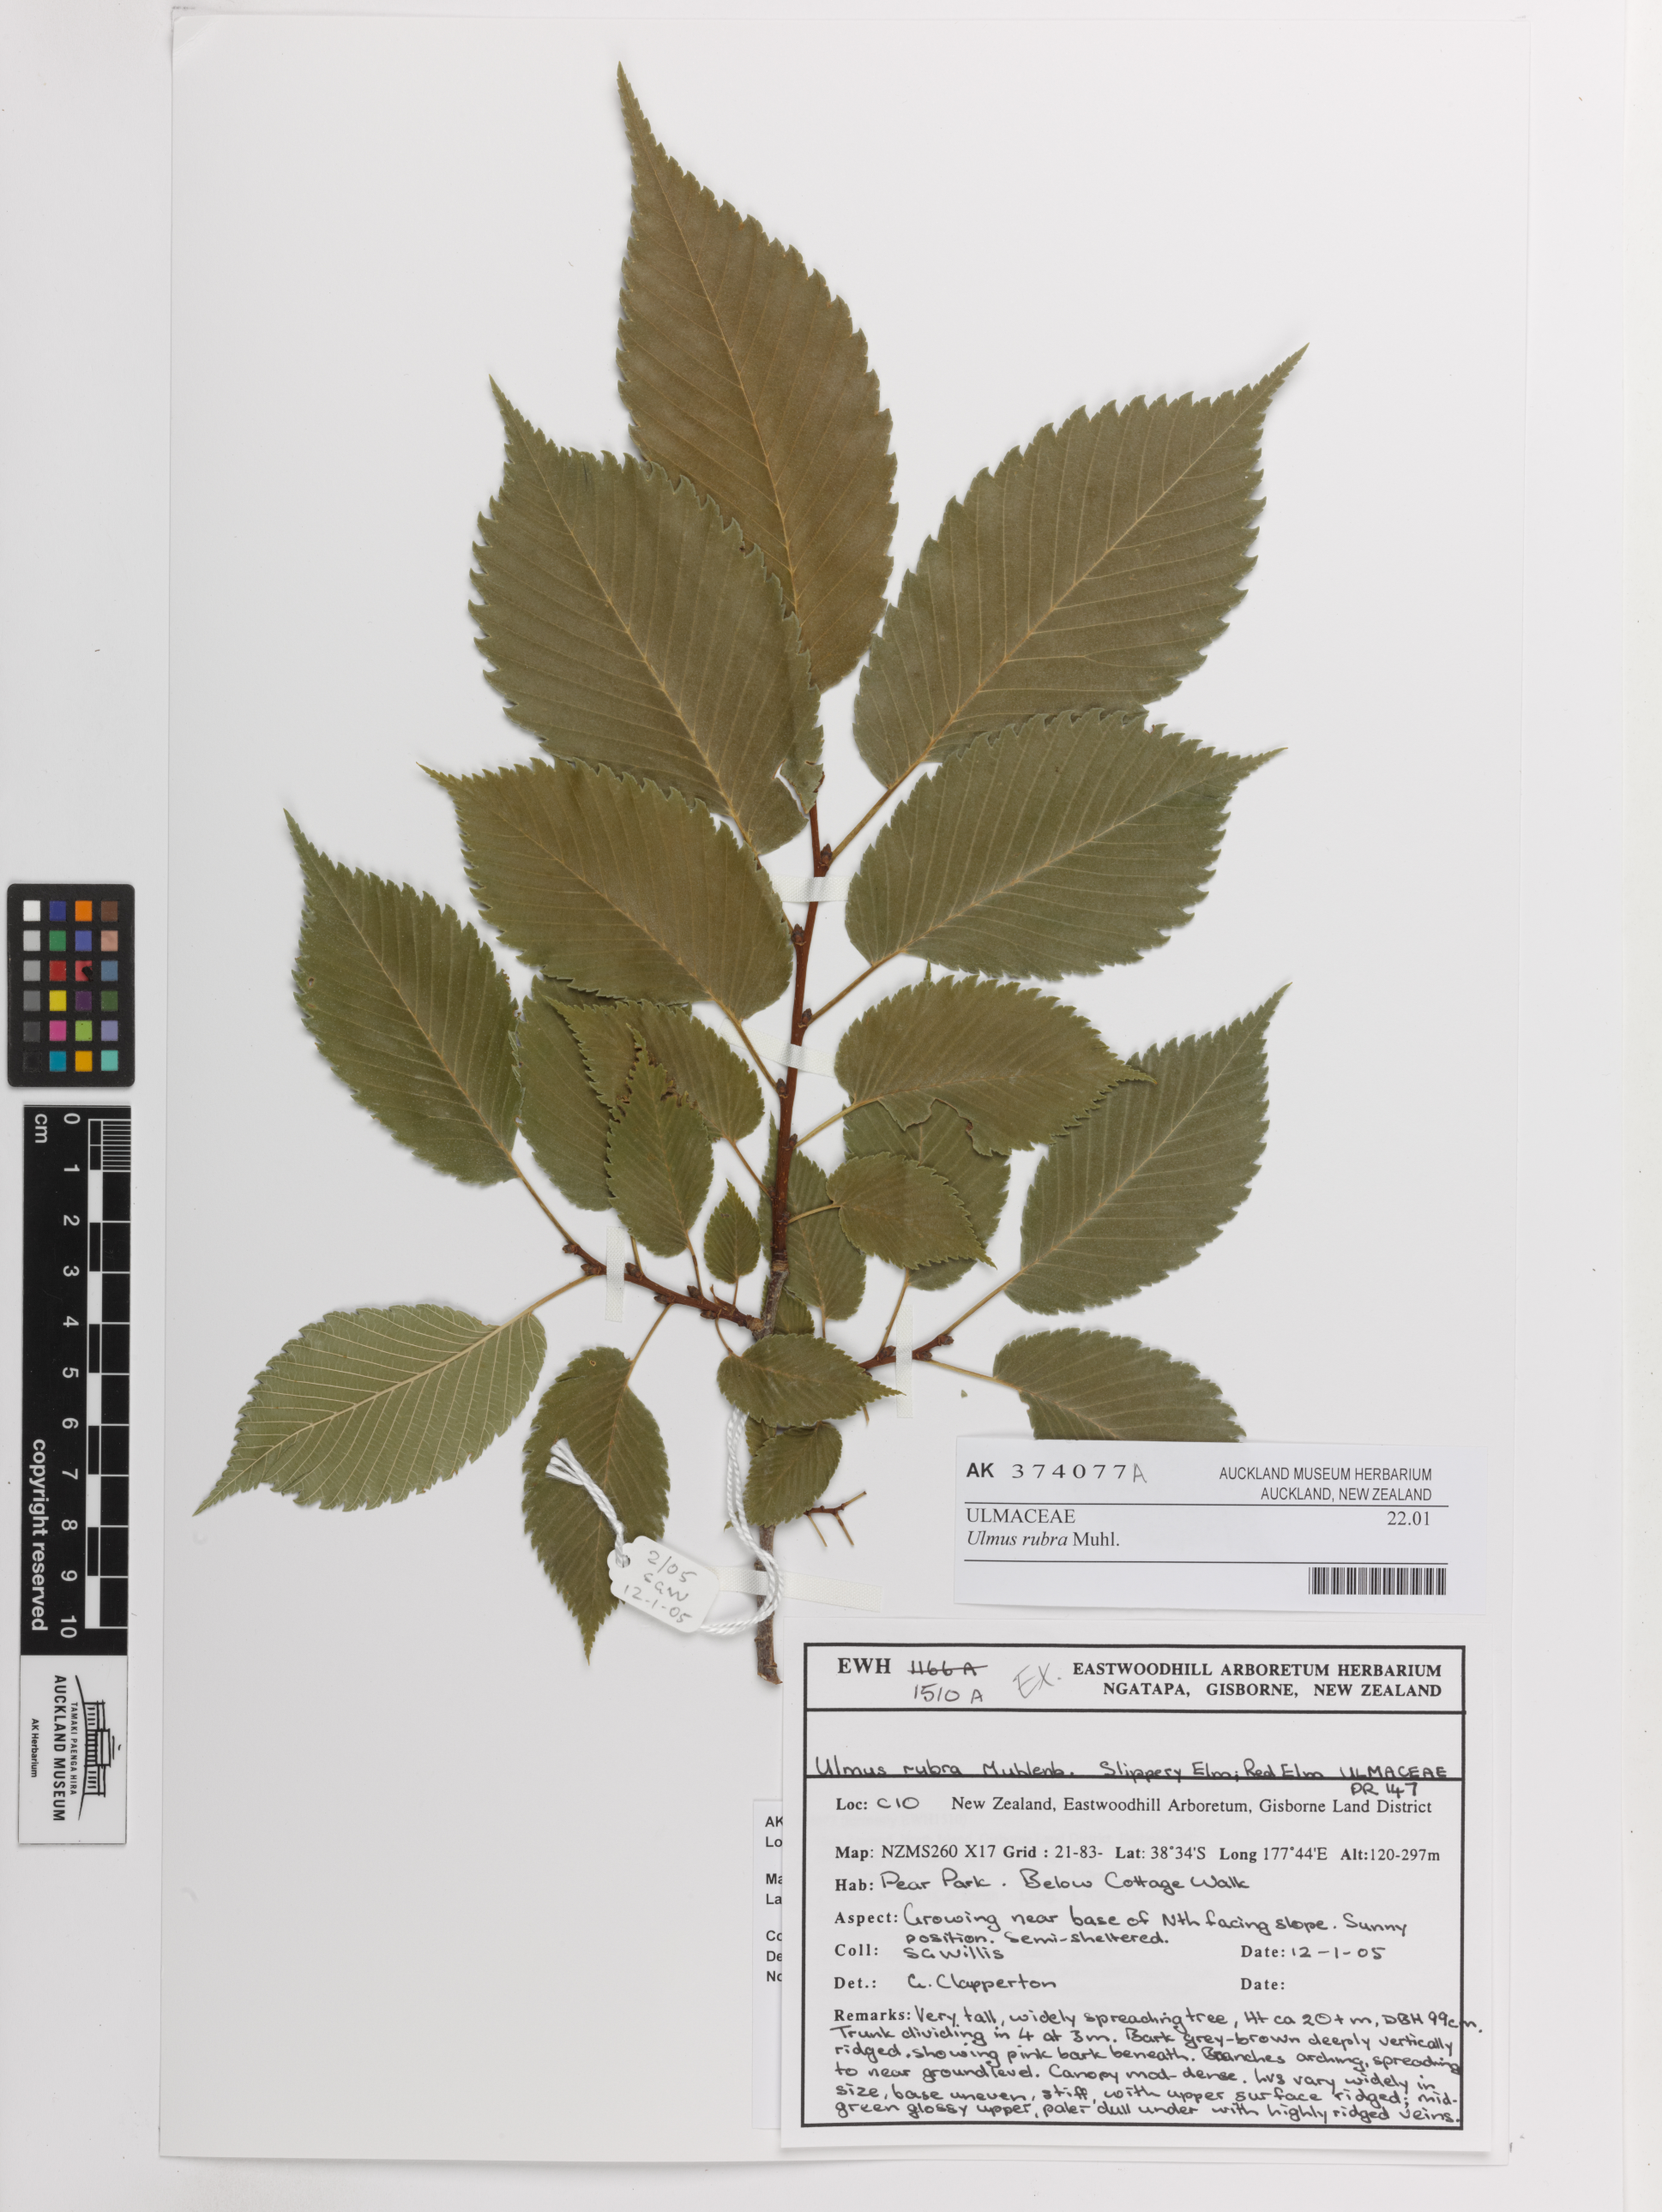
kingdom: Plantae
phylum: Tracheophyta
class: Magnoliopsida
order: Rosales
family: Ulmaceae
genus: Ulmus
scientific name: Ulmus rubra
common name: Slippery elm
